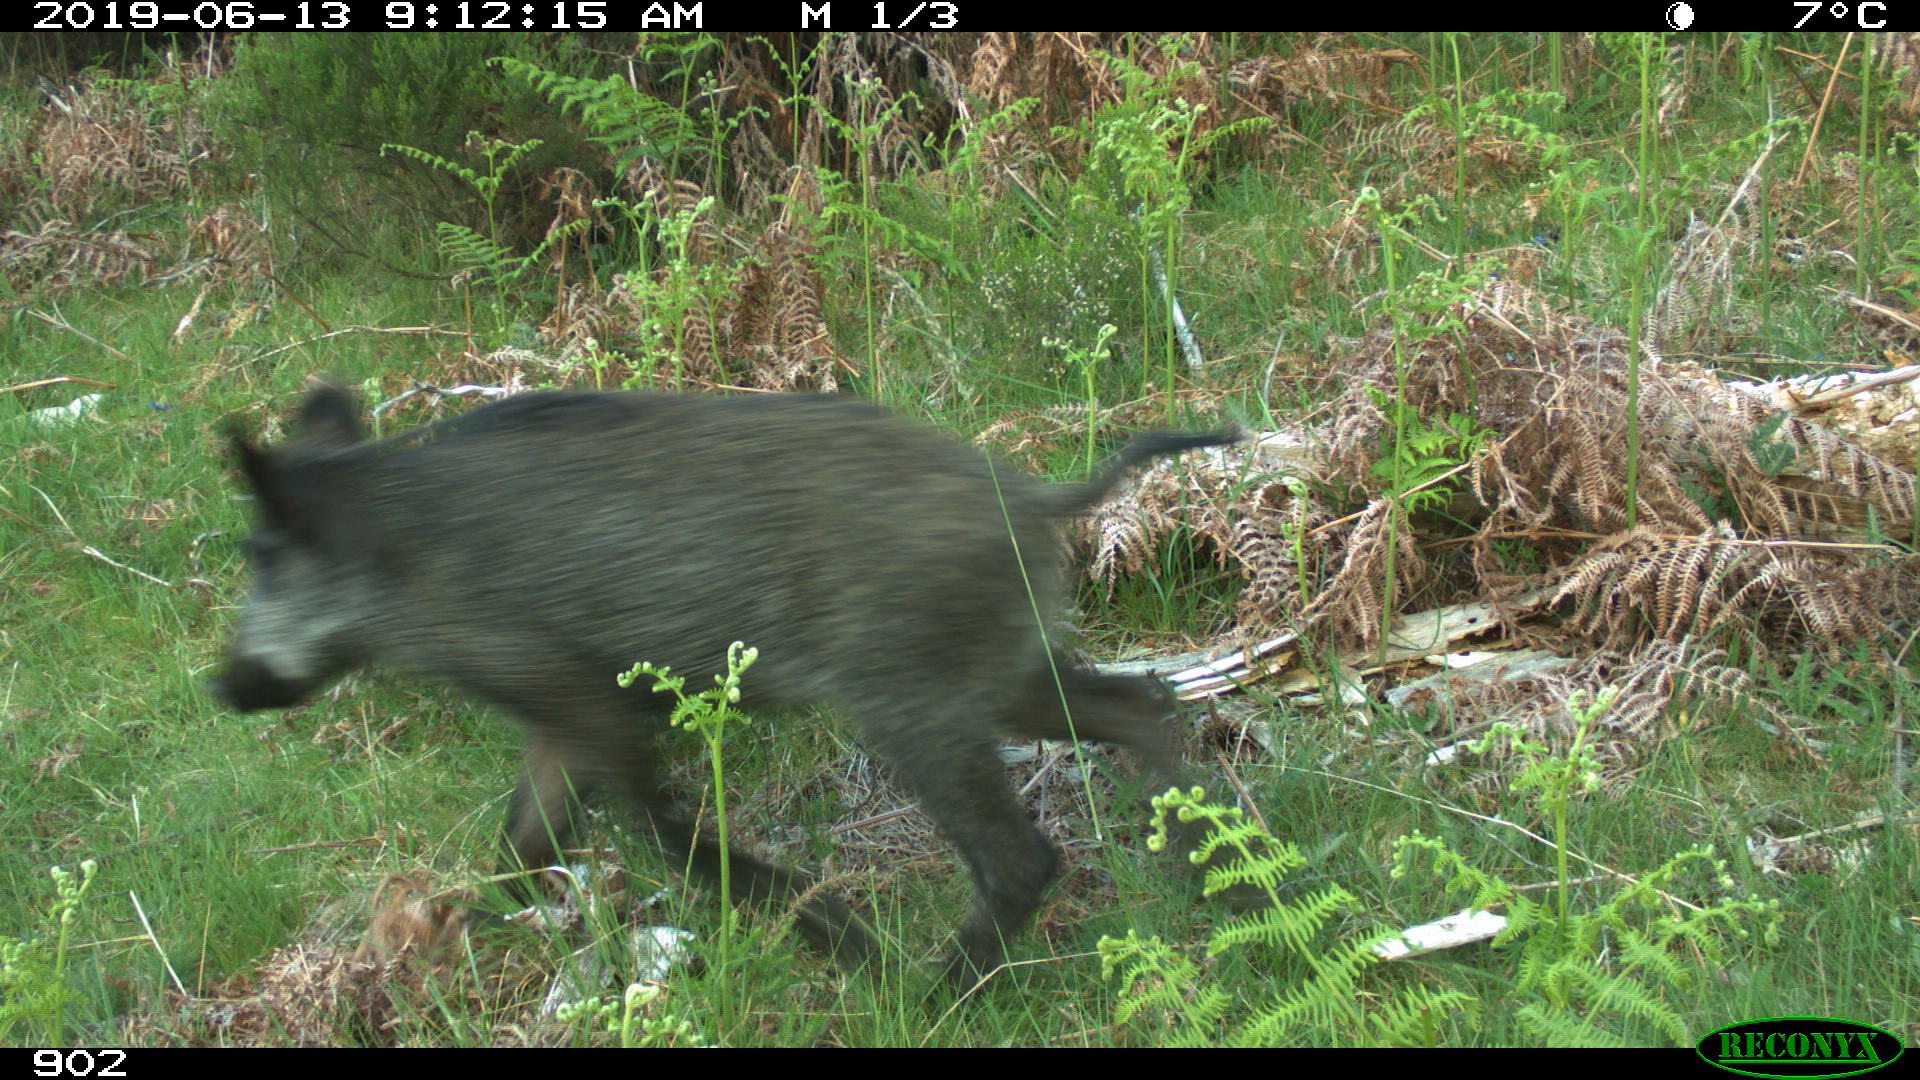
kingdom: Animalia
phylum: Chordata
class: Mammalia
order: Artiodactyla
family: Suidae
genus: Sus
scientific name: Sus scrofa
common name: Wild boar
